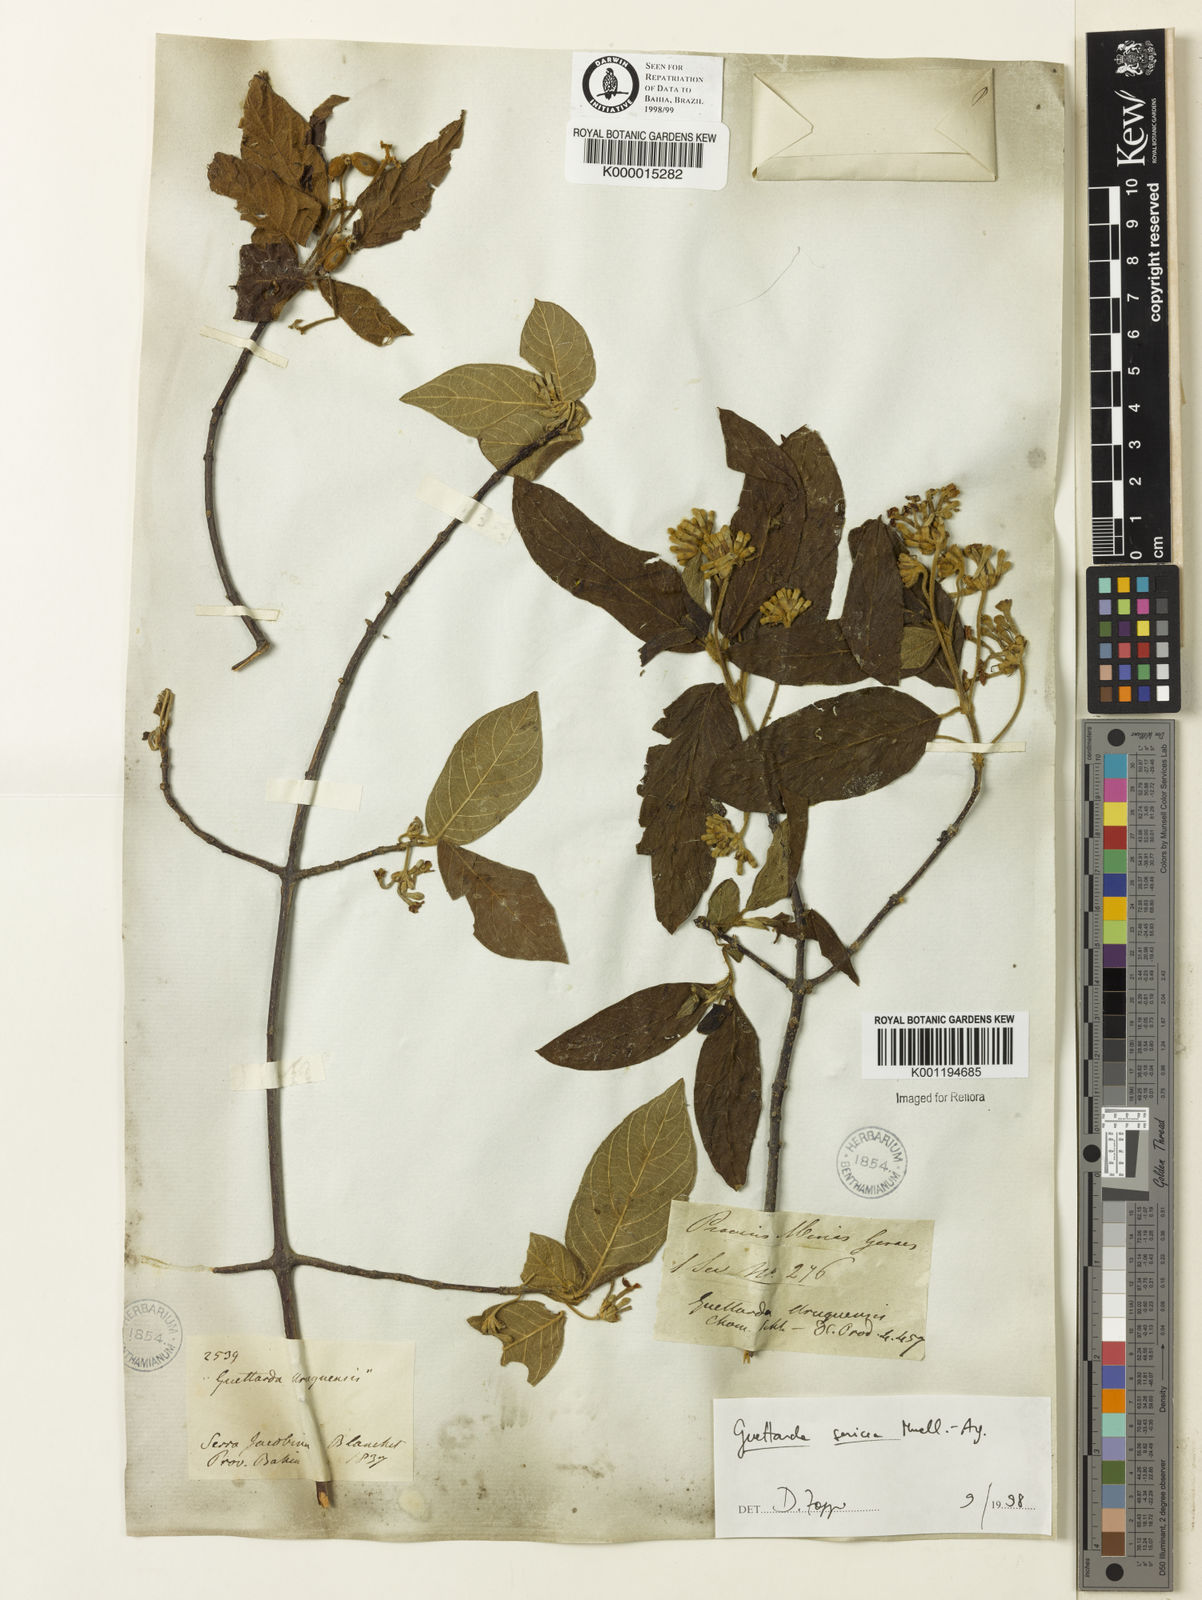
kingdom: Plantae
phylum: Tracheophyta
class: Magnoliopsida
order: Gentianales
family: Rubiaceae
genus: Guettarda
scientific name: Guettarda
